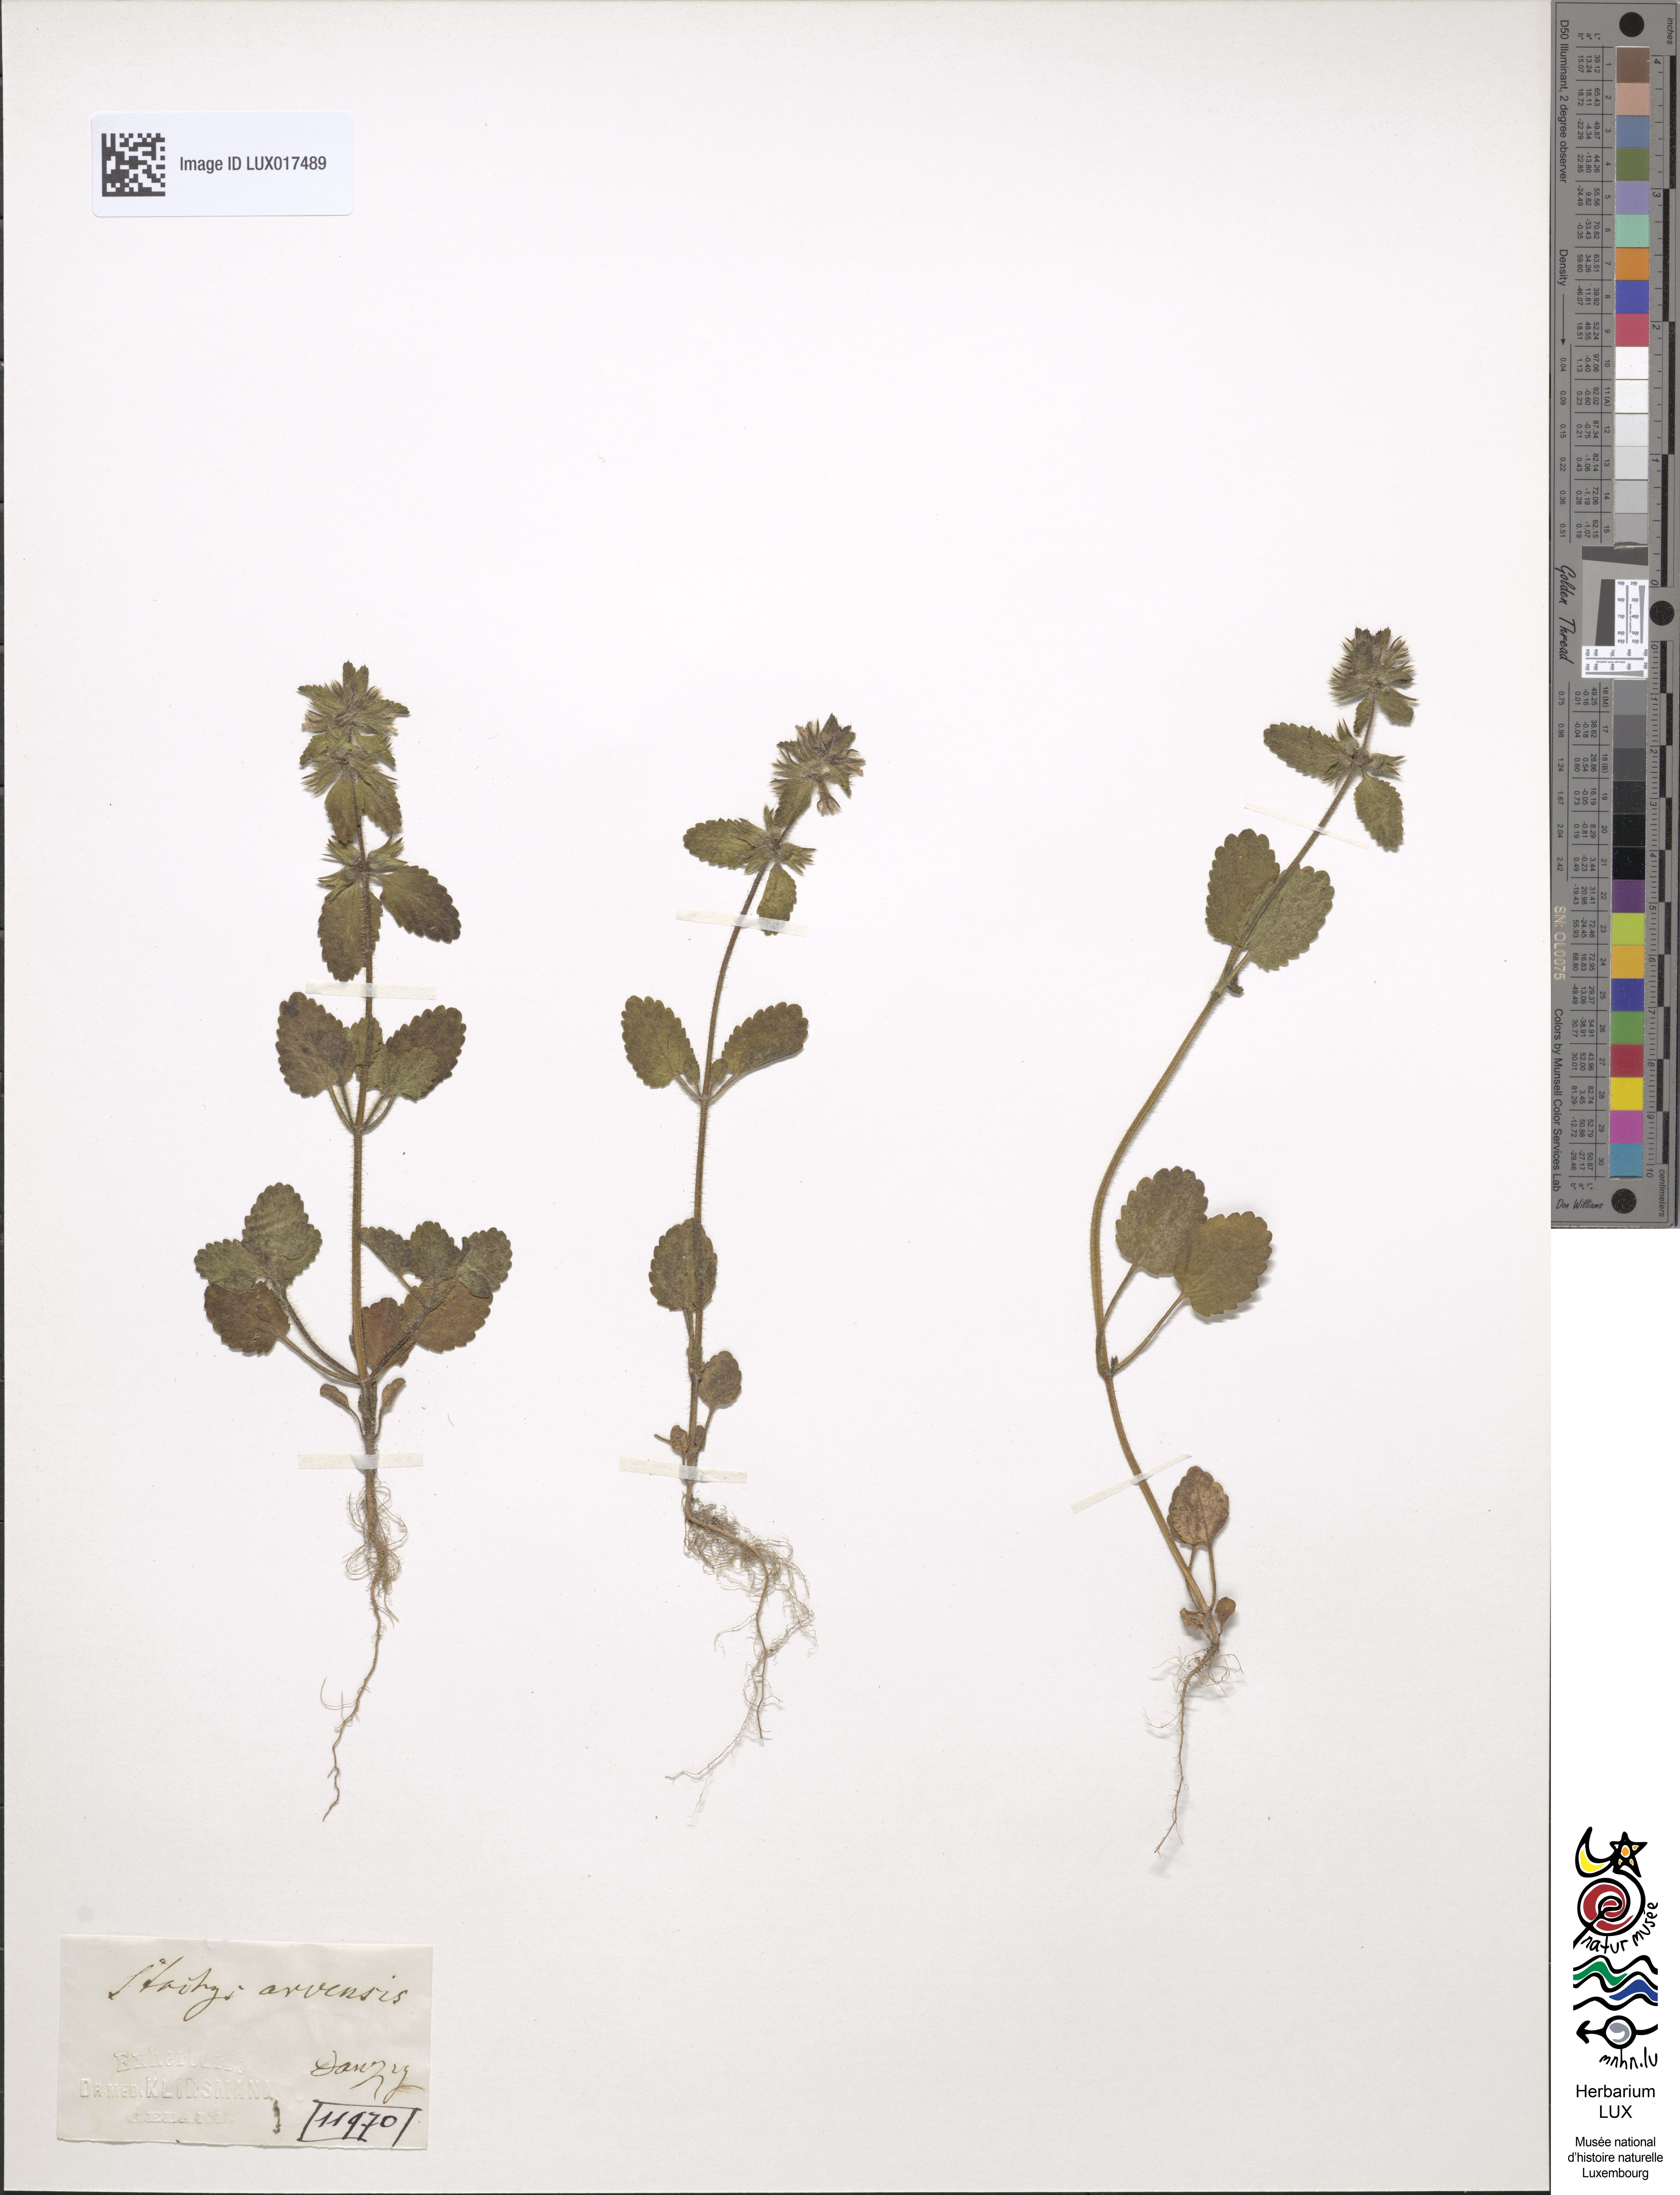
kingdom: Plantae
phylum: Tracheophyta
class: Magnoliopsida
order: Lamiales
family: Lamiaceae
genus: Stachys
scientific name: Stachys arvensis
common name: Field woundwort
